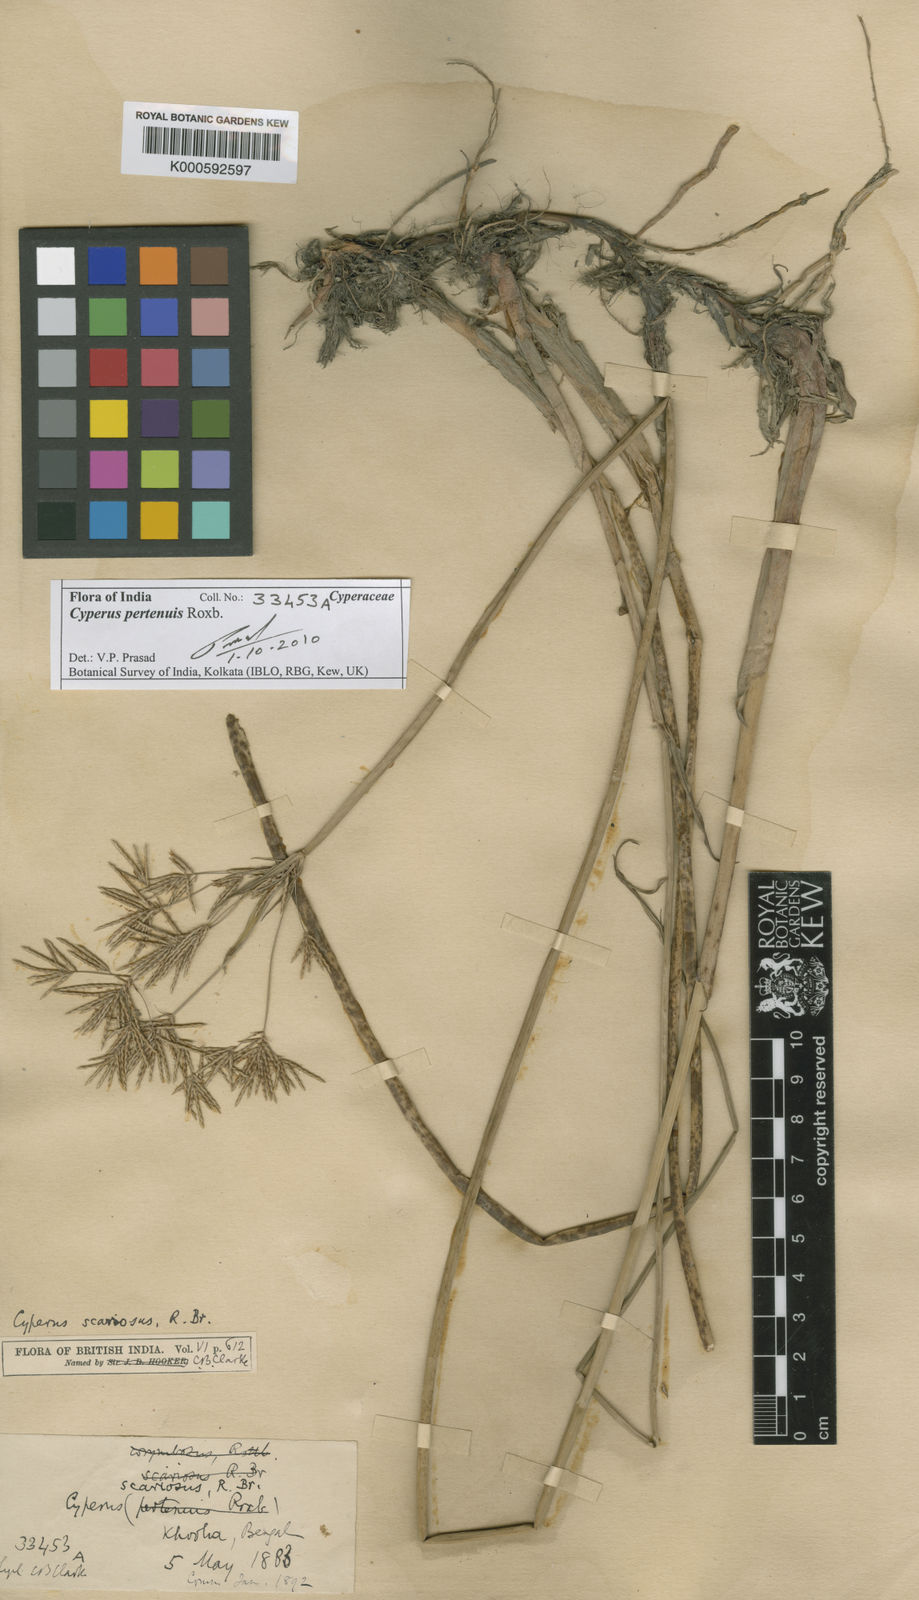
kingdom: Plantae
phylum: Tracheophyta
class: Liliopsida
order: Poales
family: Cyperaceae
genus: Cyperus
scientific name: Cyperus corymbosus
